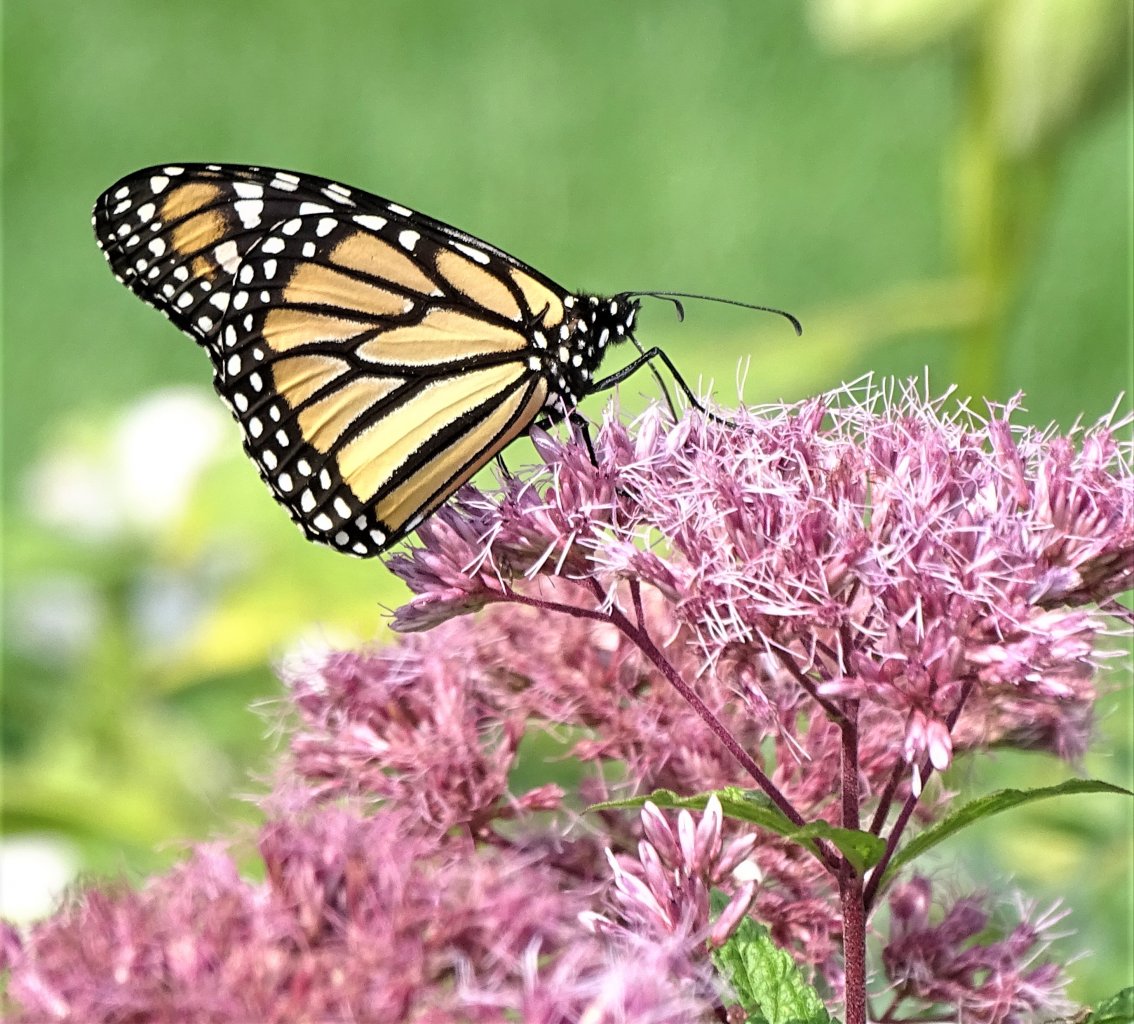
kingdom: Animalia
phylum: Arthropoda
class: Insecta
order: Lepidoptera
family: Nymphalidae
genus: Danaus
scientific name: Danaus plexippus
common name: Monarch
